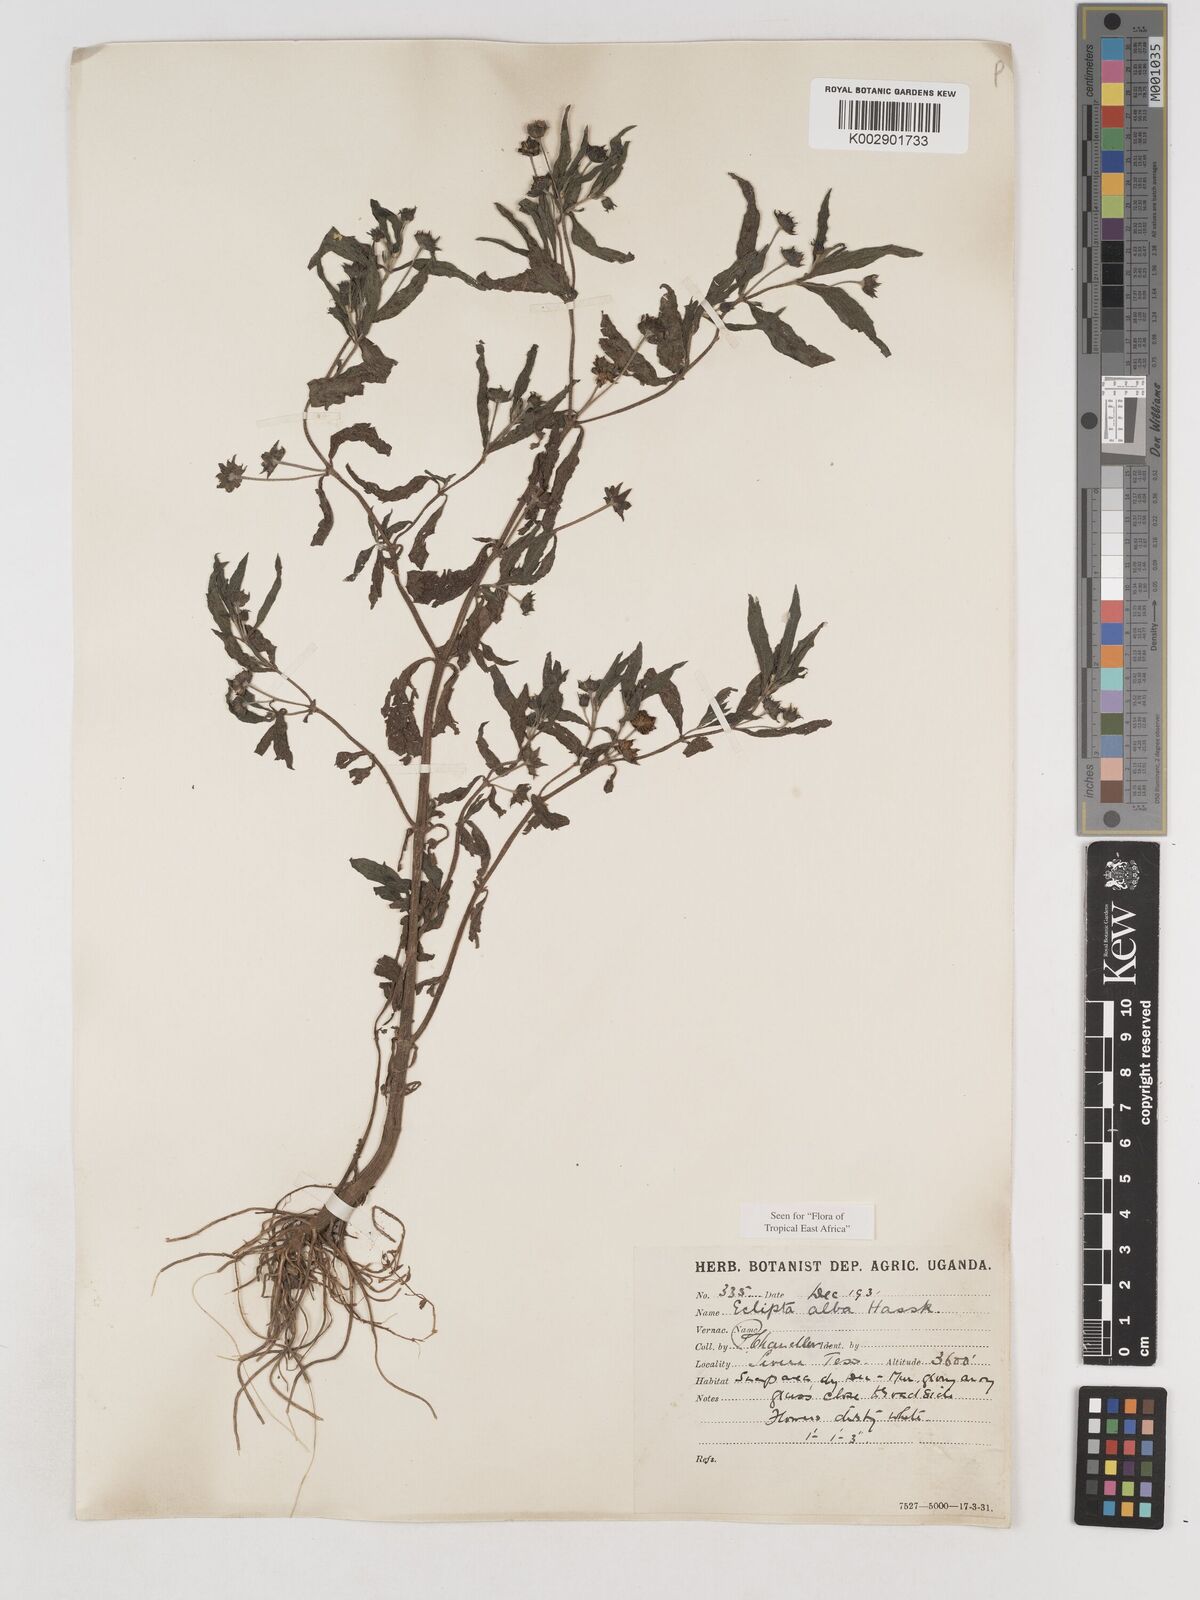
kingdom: Plantae
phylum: Tracheophyta
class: Magnoliopsida
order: Asterales
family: Asteraceae
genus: Eclipta
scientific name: Eclipta alba
